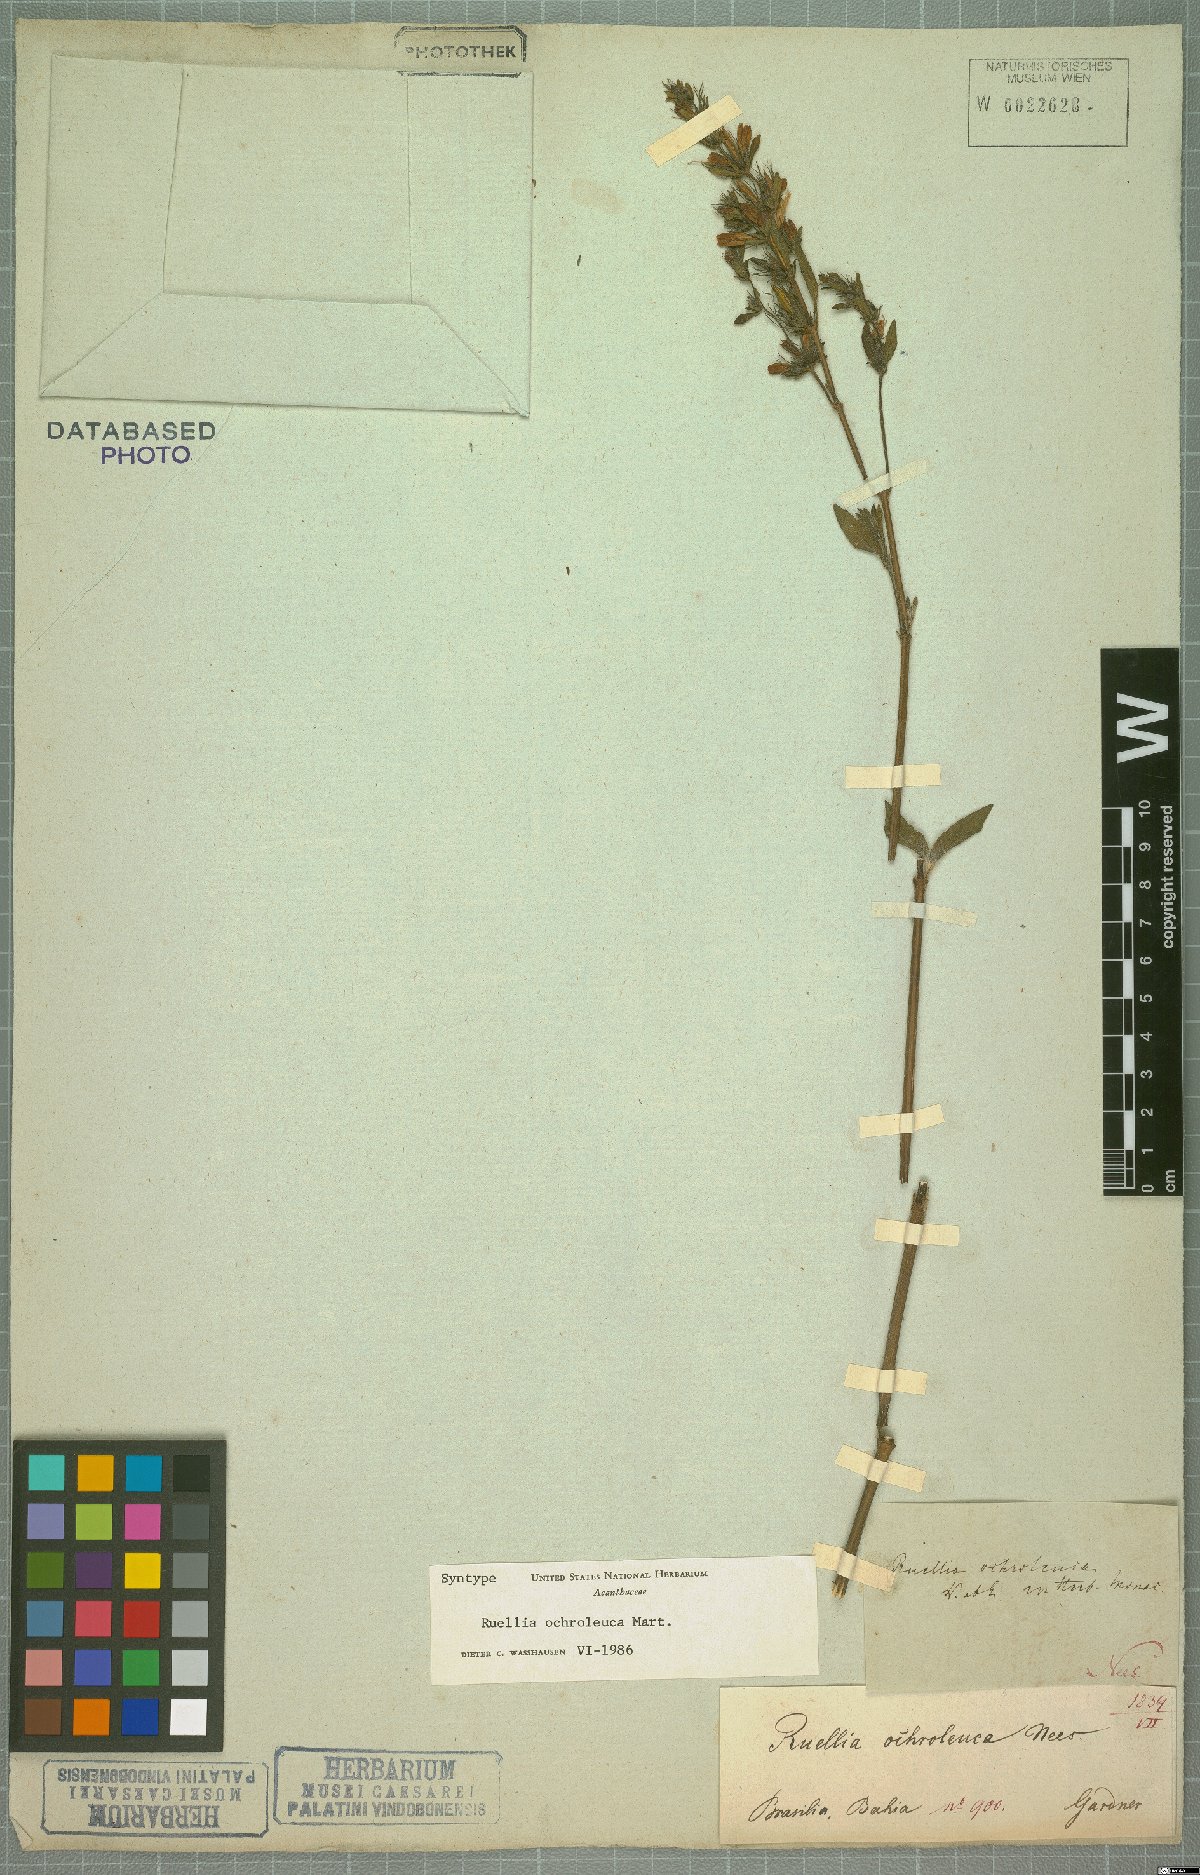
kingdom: Plantae
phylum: Tracheophyta
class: Magnoliopsida
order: Lamiales
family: Acanthaceae
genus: Ruellia
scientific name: Ruellia ochroleuca
